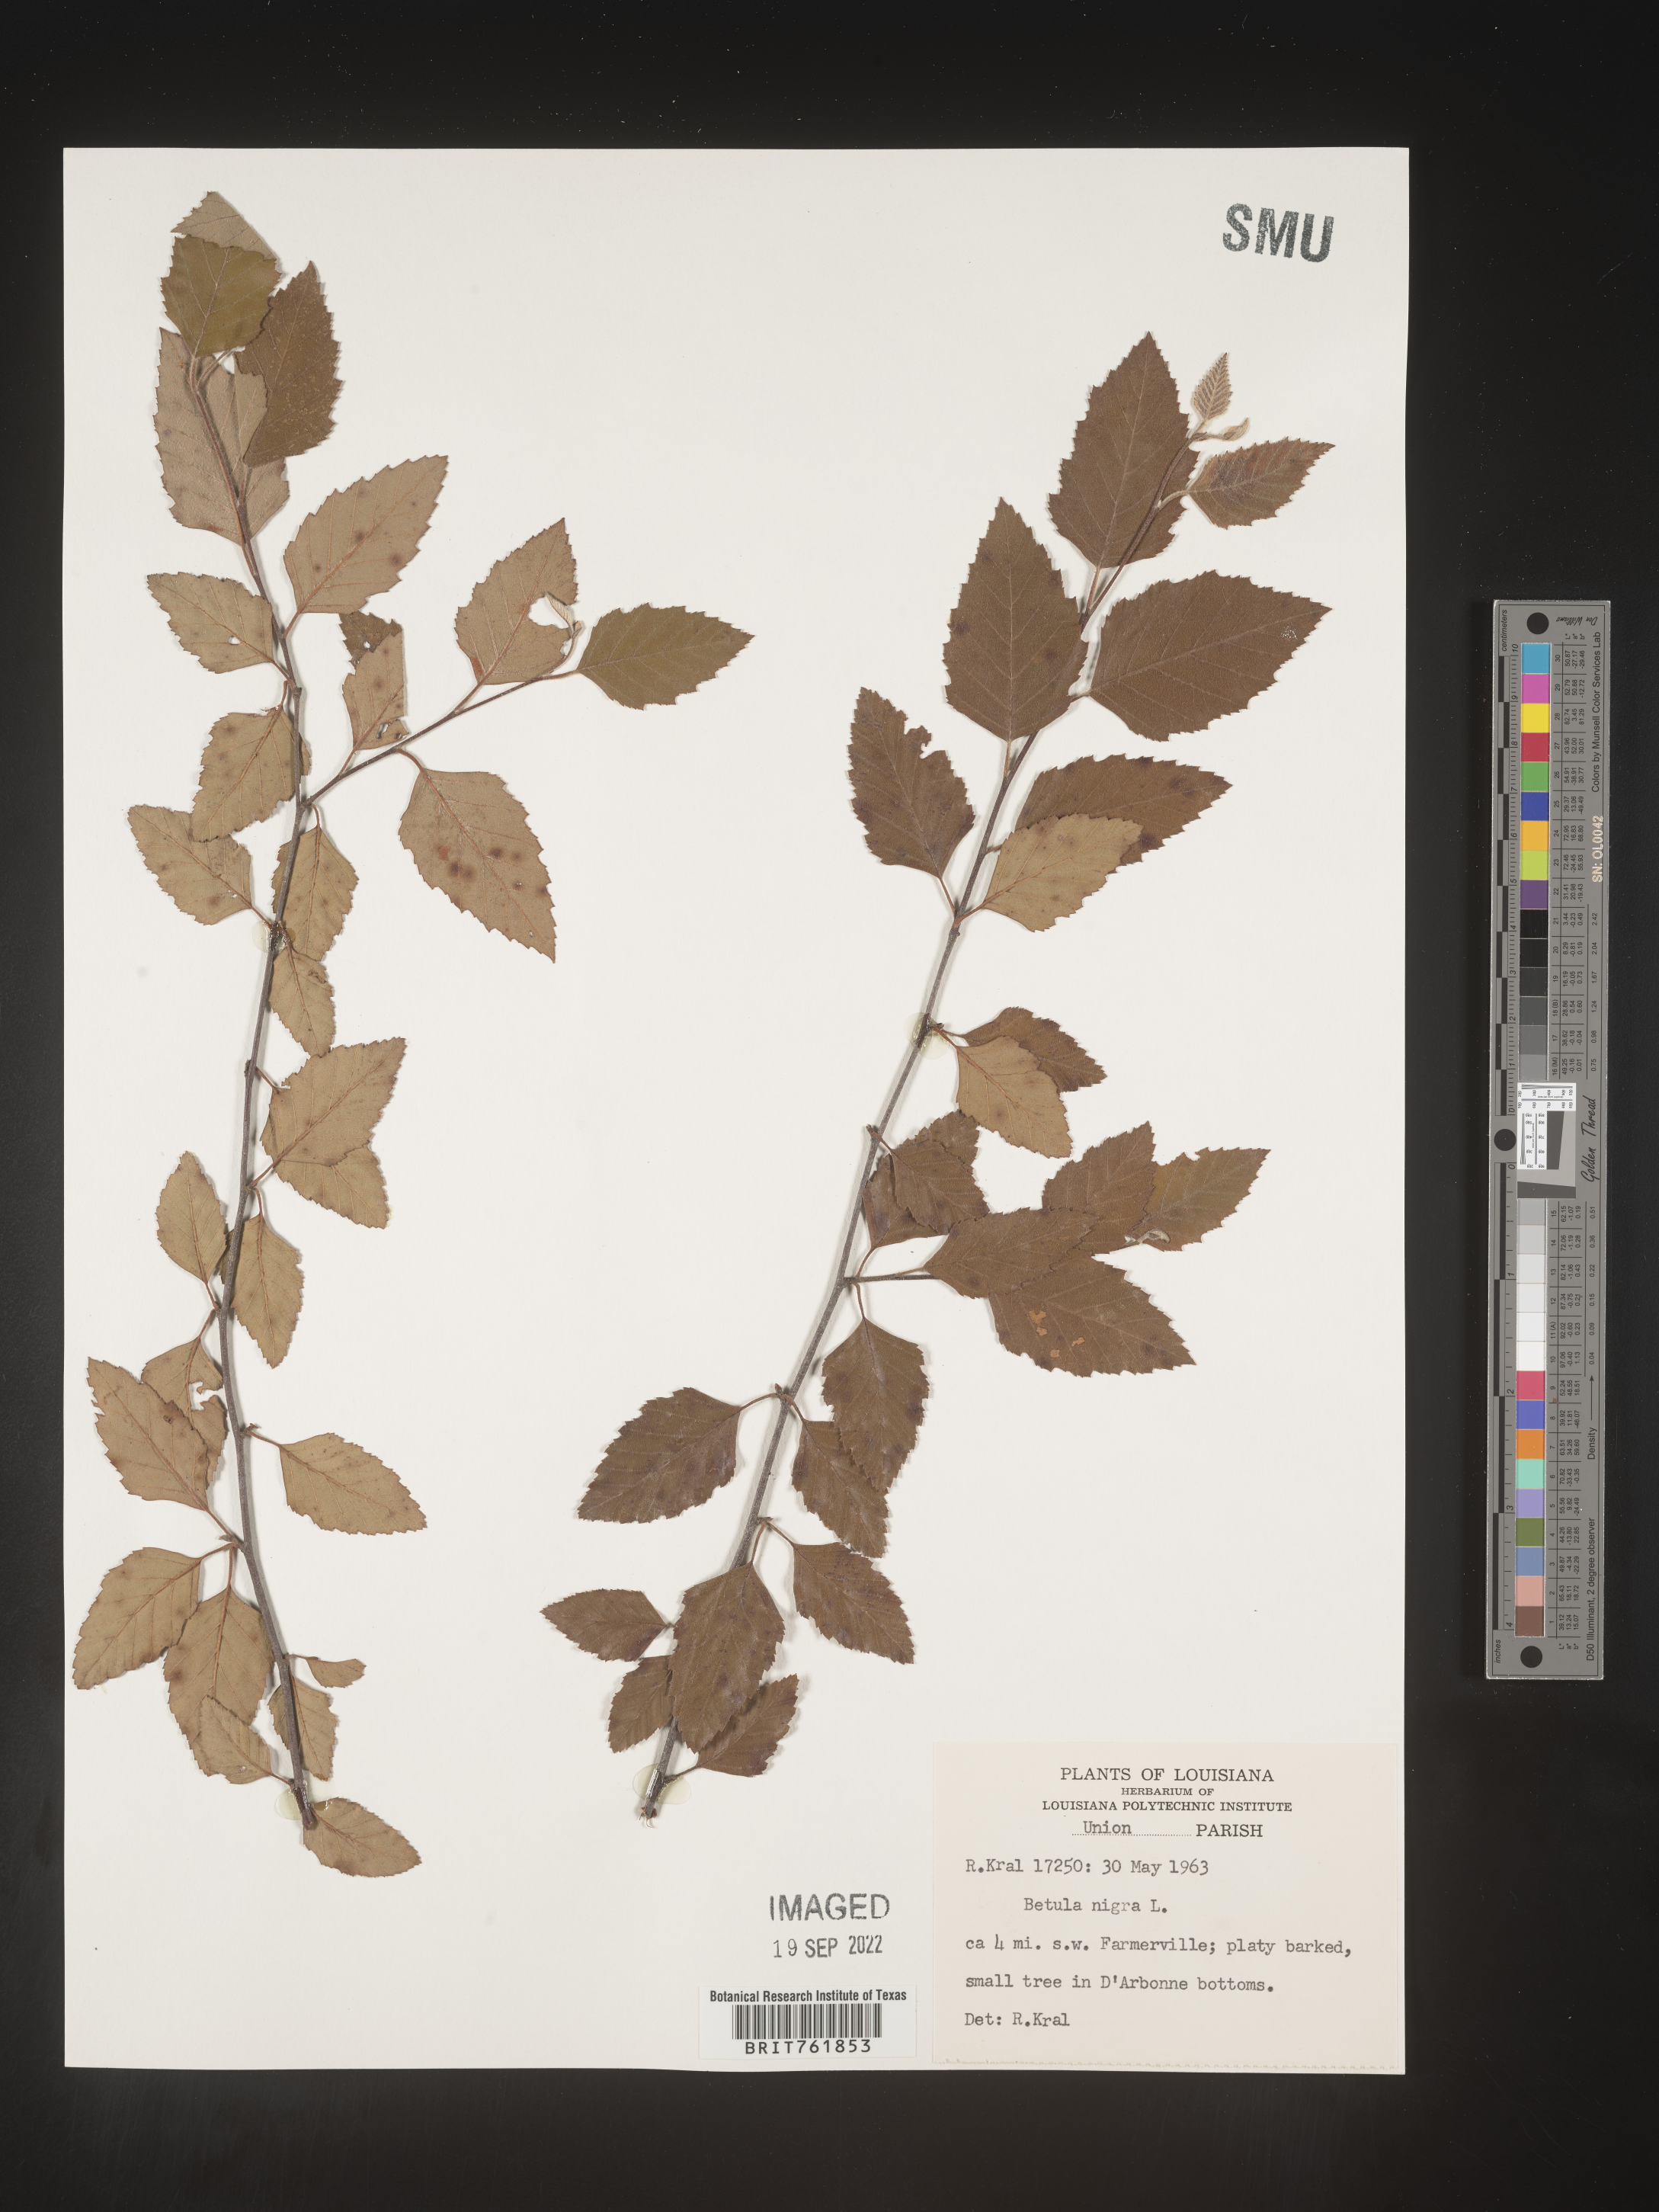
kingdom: Plantae
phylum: Tracheophyta
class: Magnoliopsida
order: Fagales
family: Betulaceae
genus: Betula
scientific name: Betula nigra
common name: Black birch
